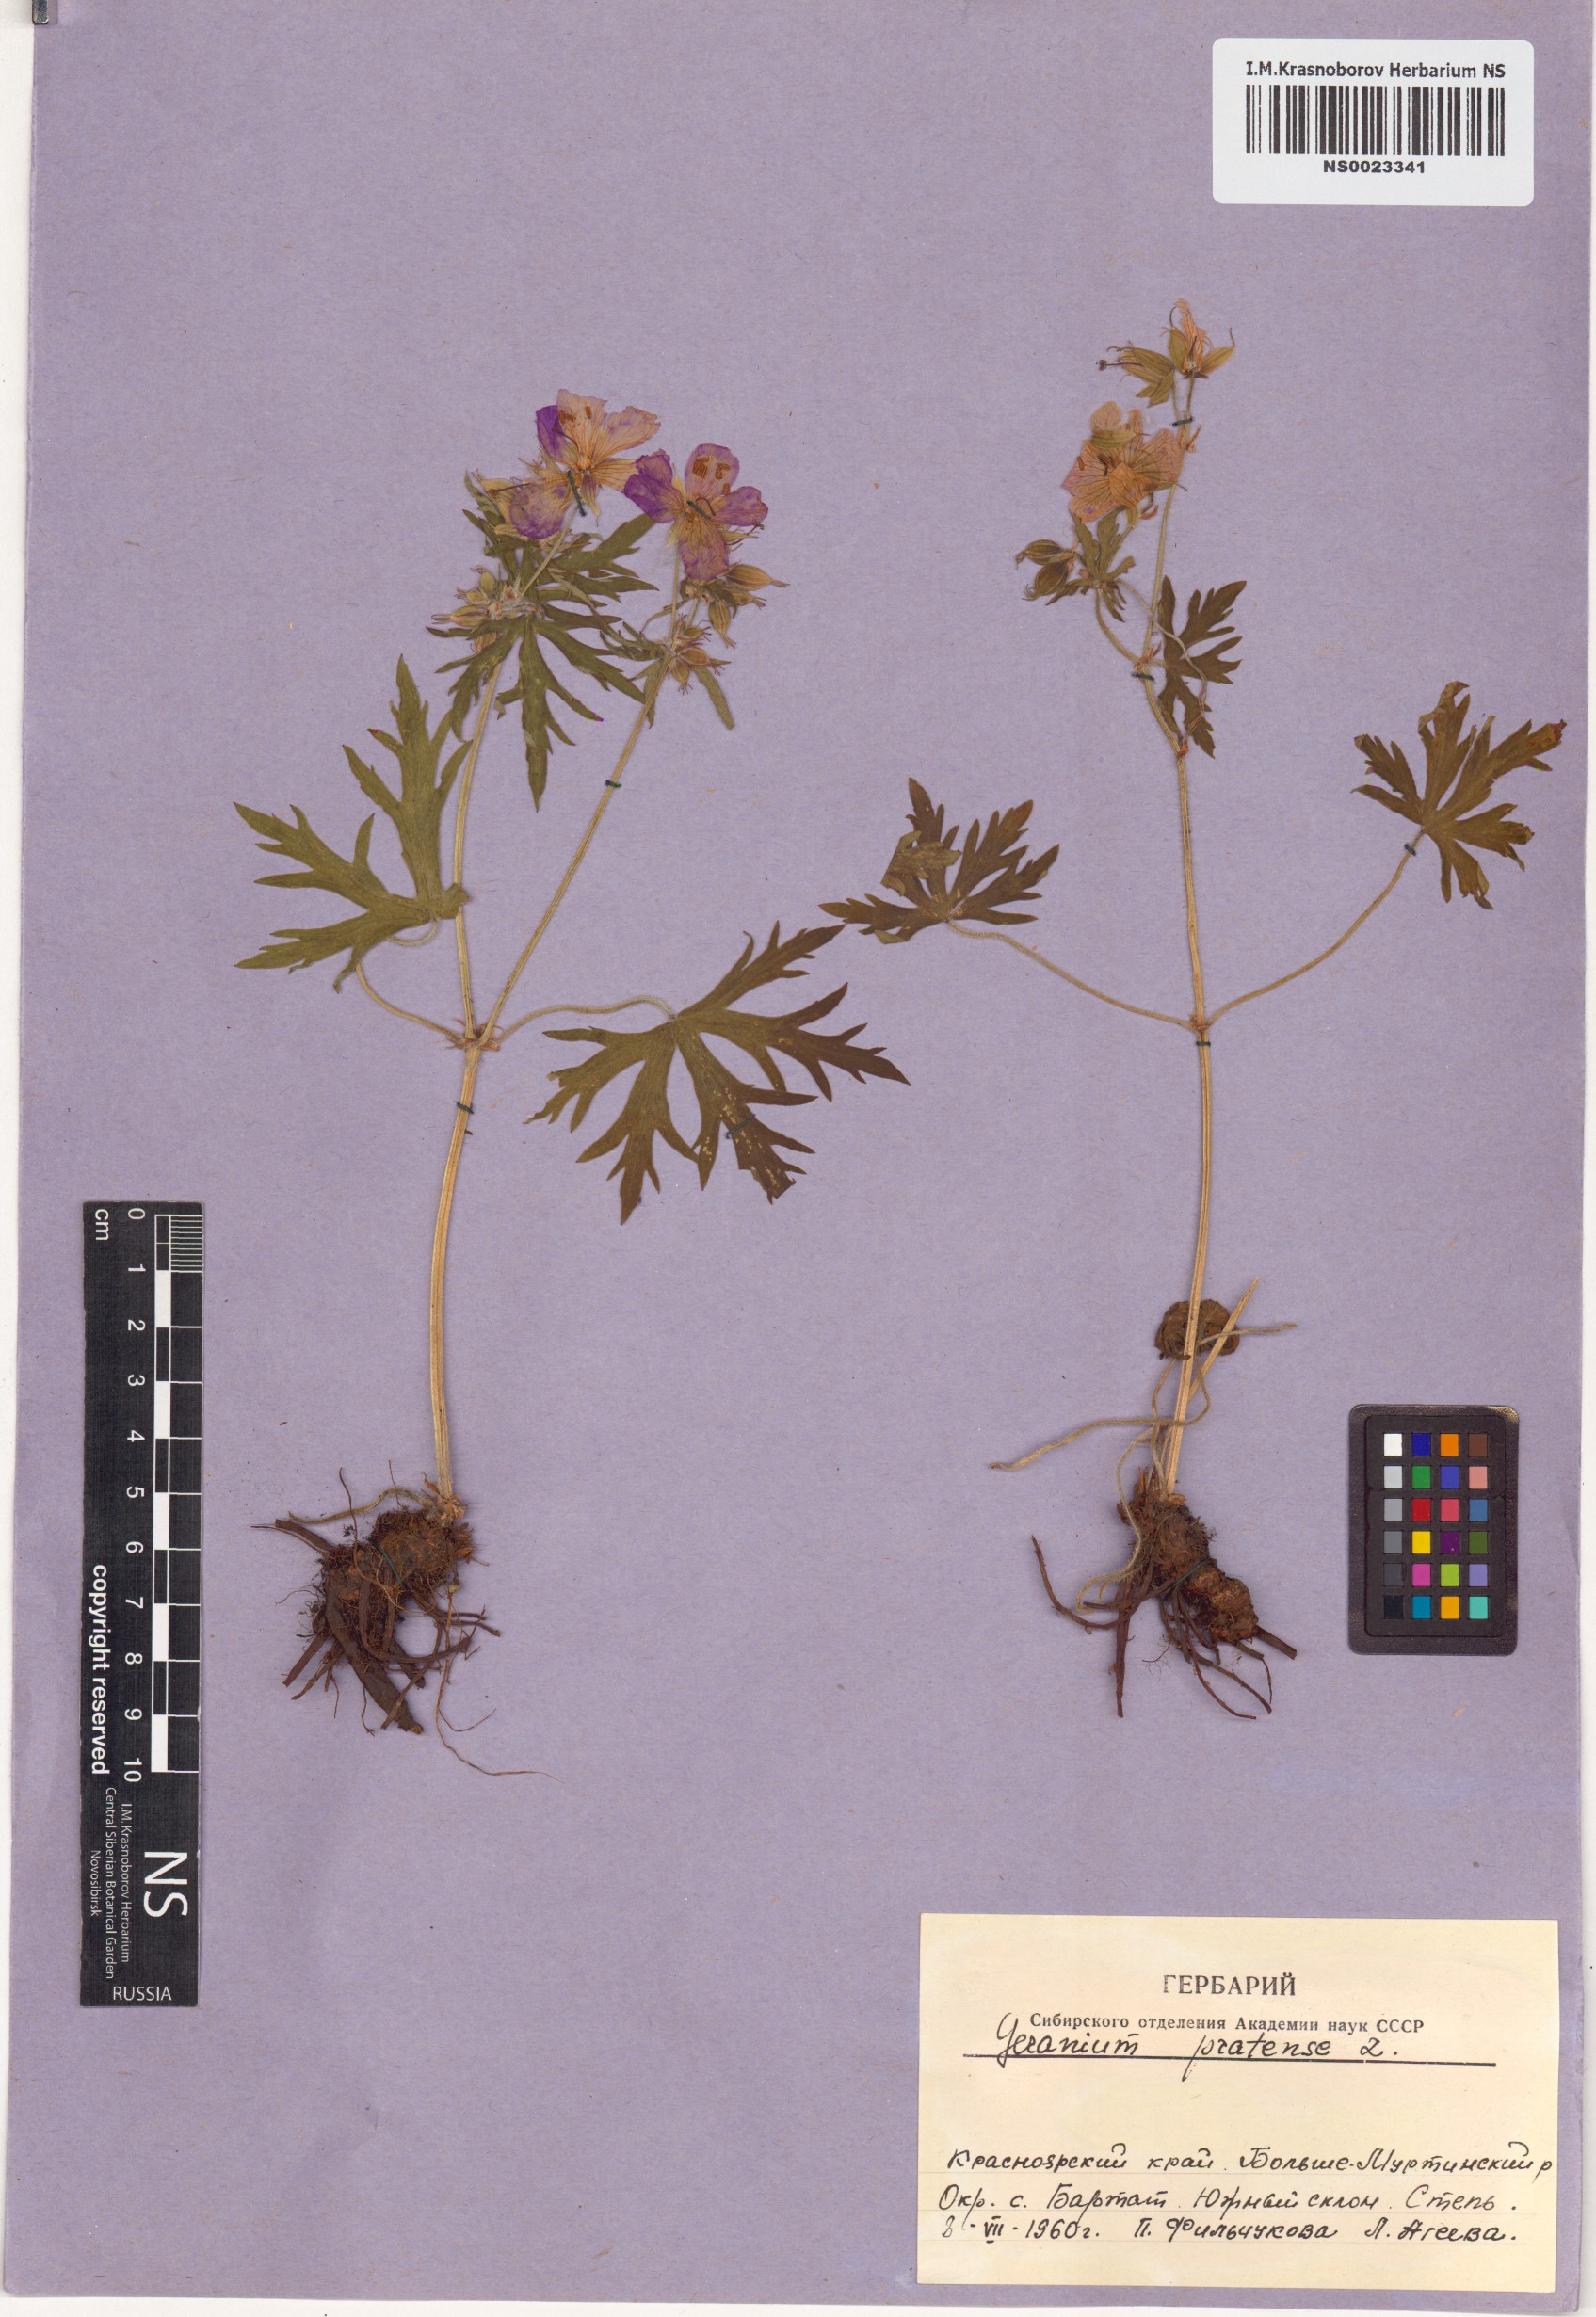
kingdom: Plantae
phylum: Tracheophyta
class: Magnoliopsida
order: Geraniales
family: Geraniaceae
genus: Geranium
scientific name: Geranium pratense
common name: Meadow crane's-bill
